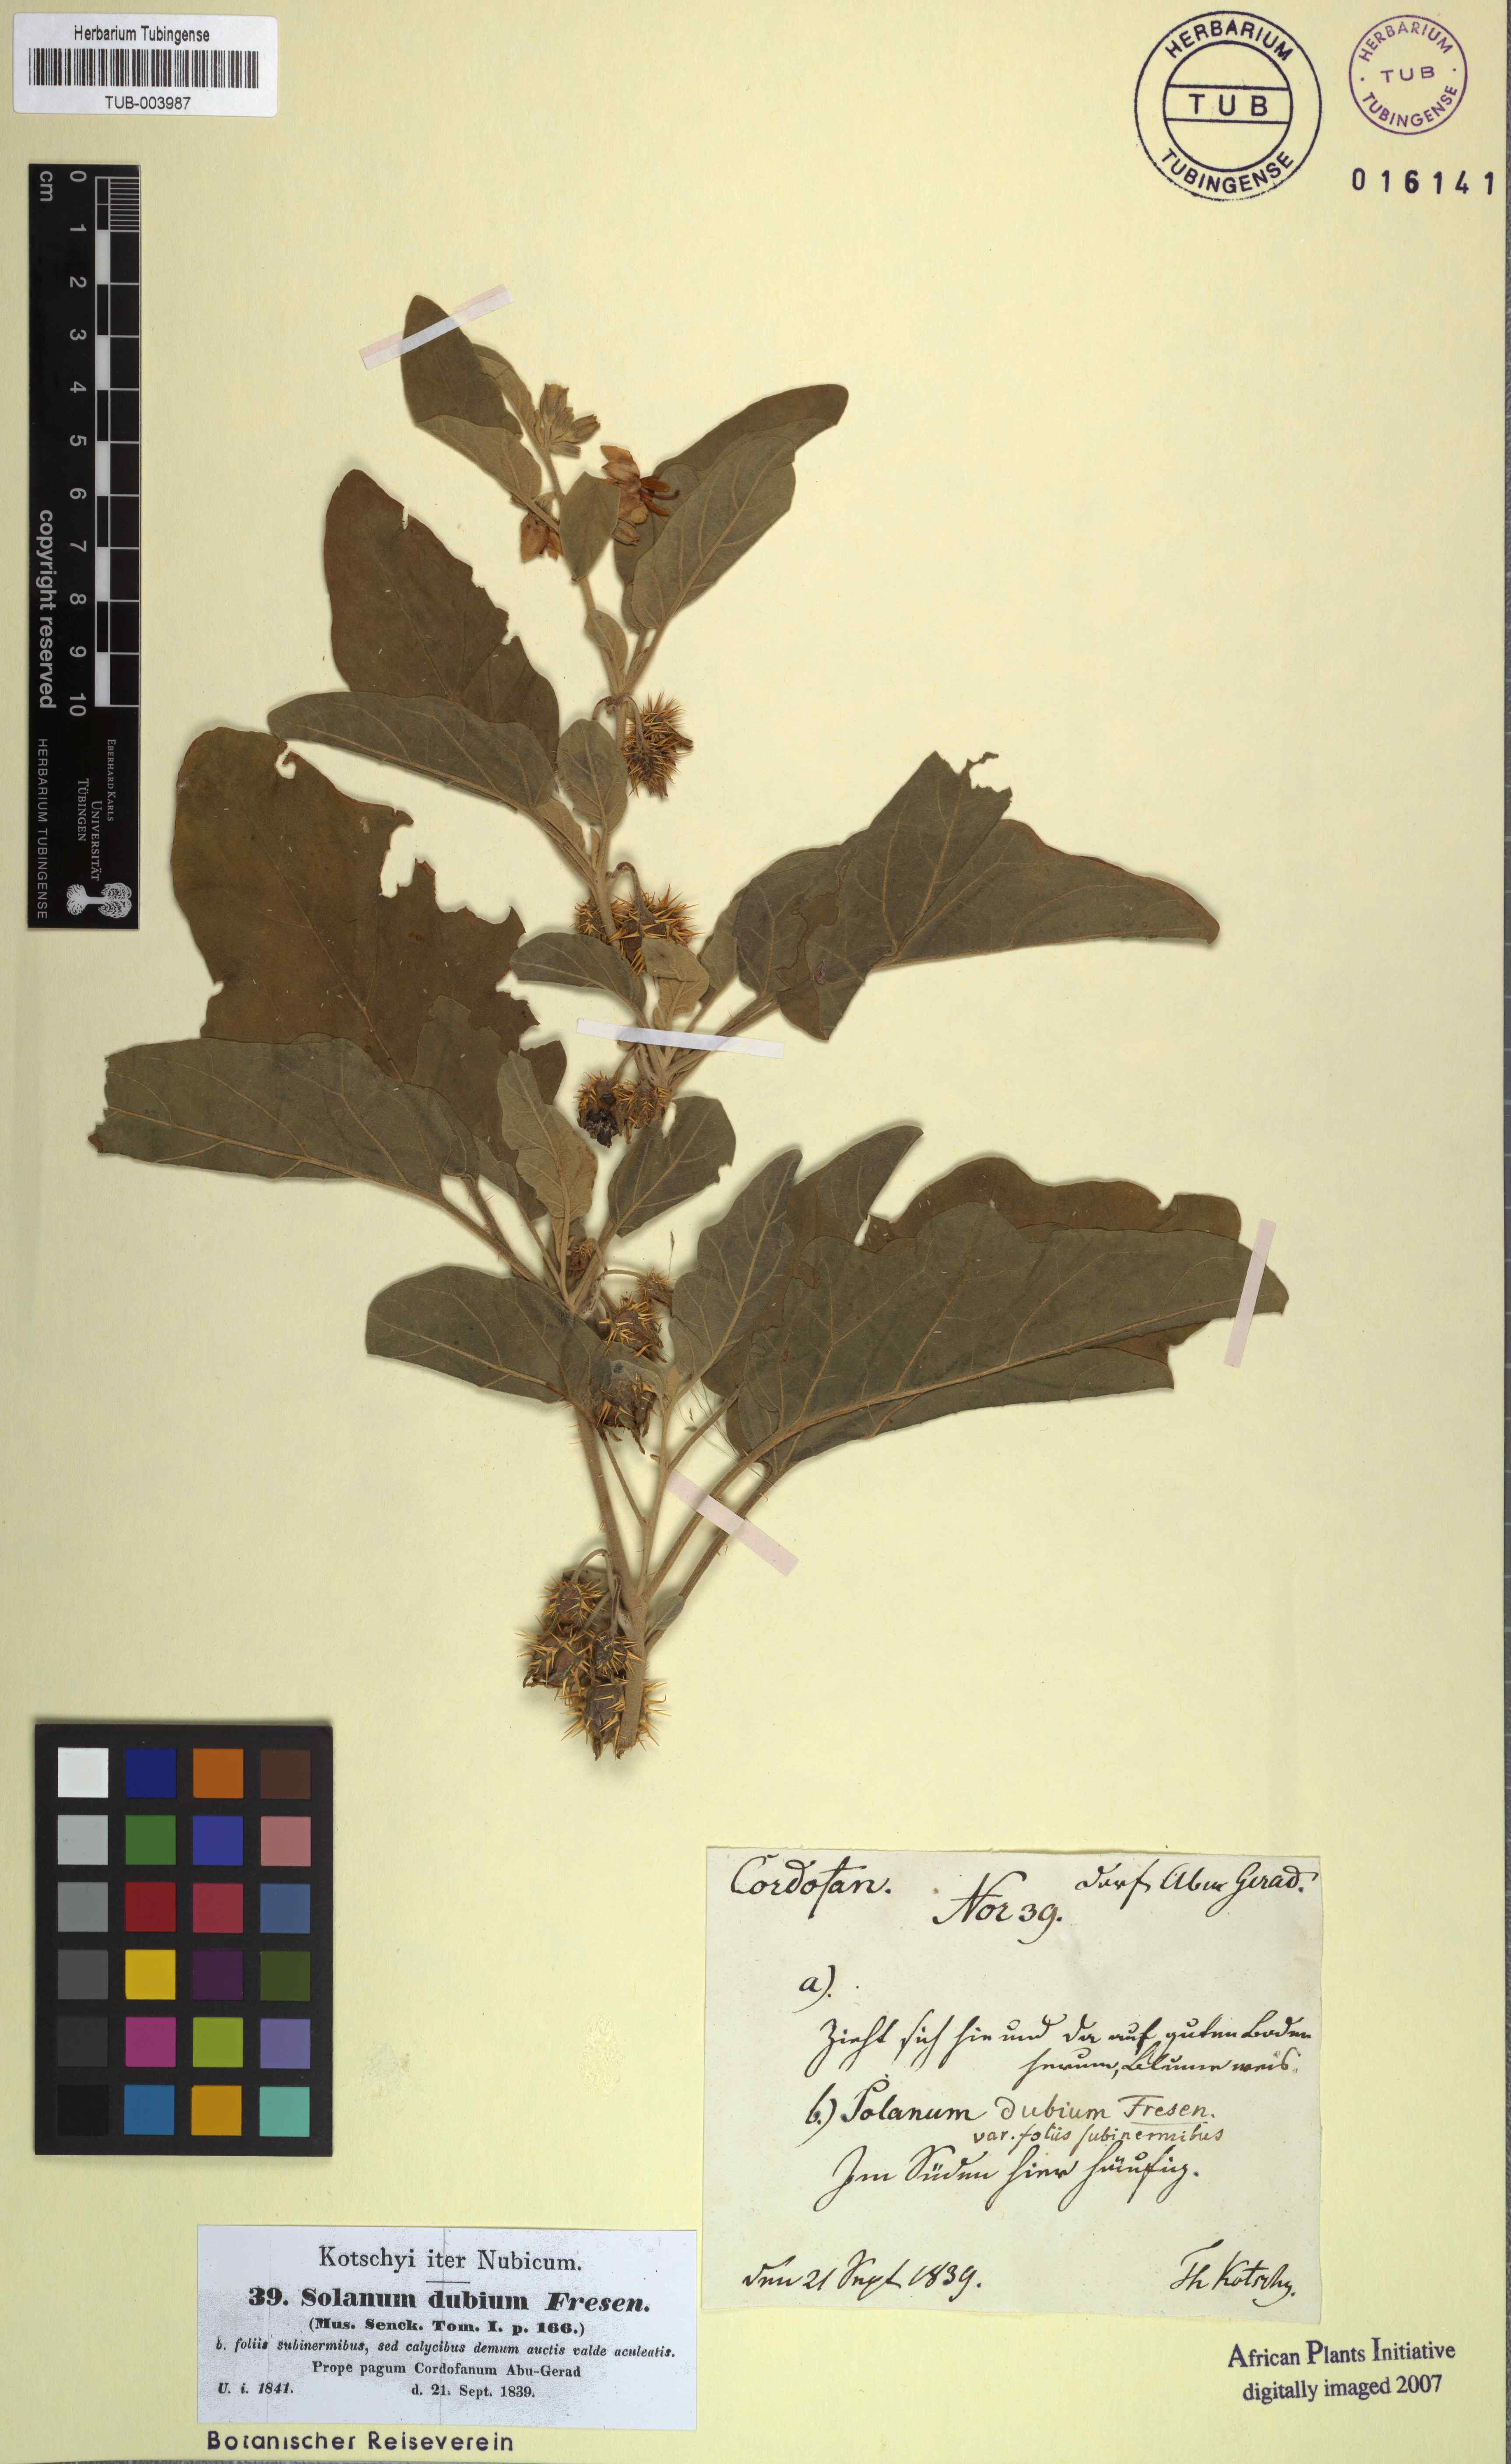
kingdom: Plantae
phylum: Tracheophyta
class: Magnoliopsida
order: Solanales
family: Solanaceae
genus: Solanum
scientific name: Solanum coagulans
